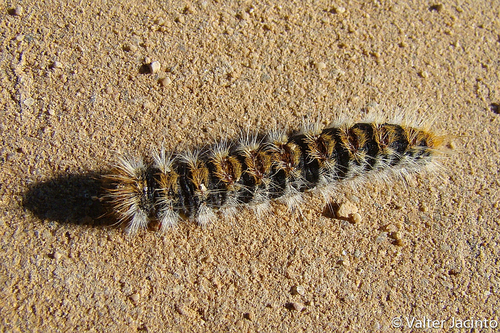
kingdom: Animalia
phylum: Arthropoda
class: Insecta
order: Lepidoptera
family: Notodontidae
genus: Thaumetopoea
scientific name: Thaumetopoea pityocampa
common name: Pine processionary
